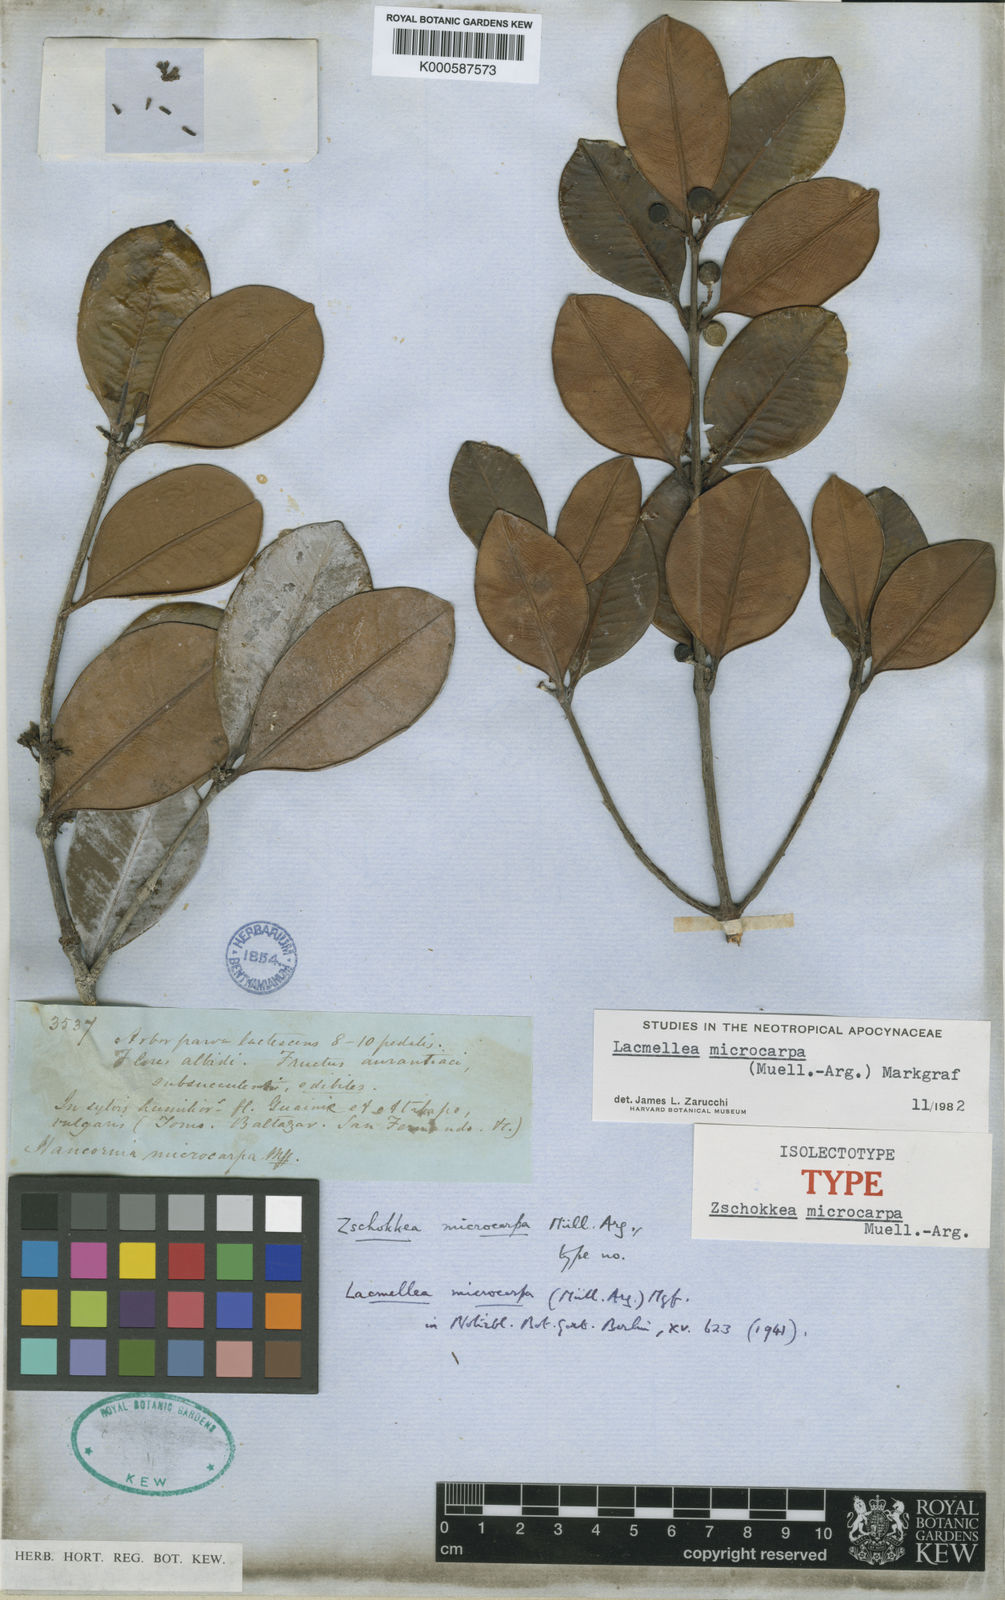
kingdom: Plantae
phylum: Tracheophyta
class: Magnoliopsida
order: Gentianales
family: Apocynaceae
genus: Lacmellea
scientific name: Lacmellea
